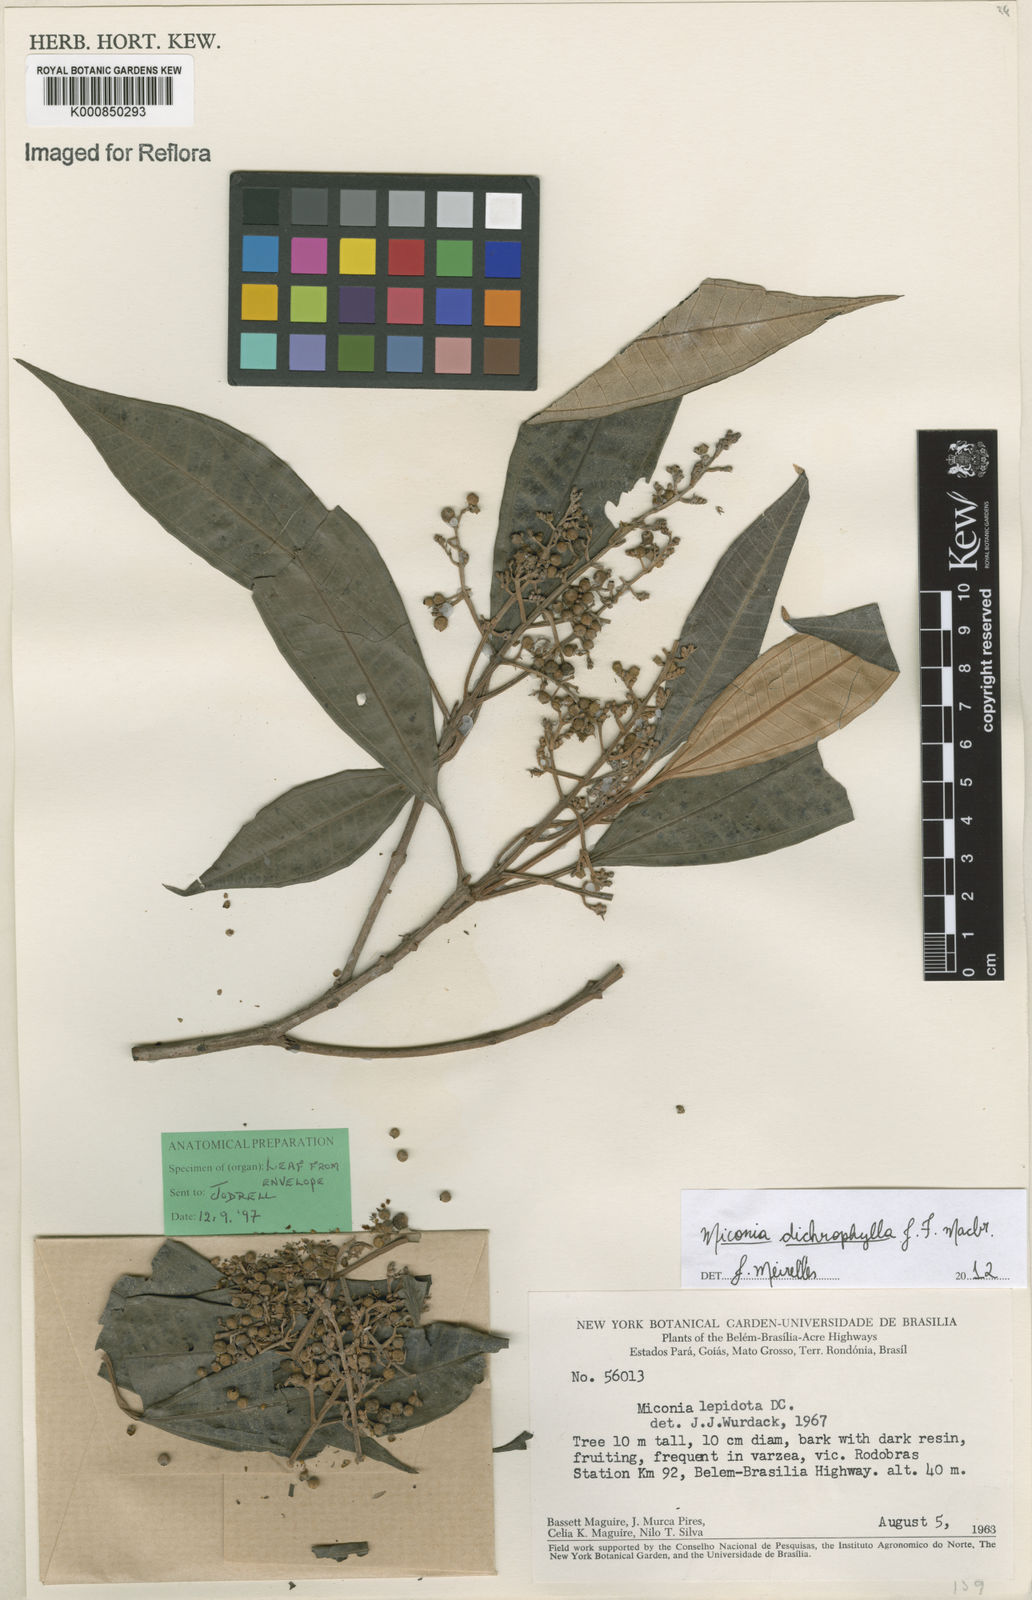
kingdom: Plantae
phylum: Tracheophyta
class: Magnoliopsida
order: Myrtales
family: Melastomataceae
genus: Miconia
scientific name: Miconia
